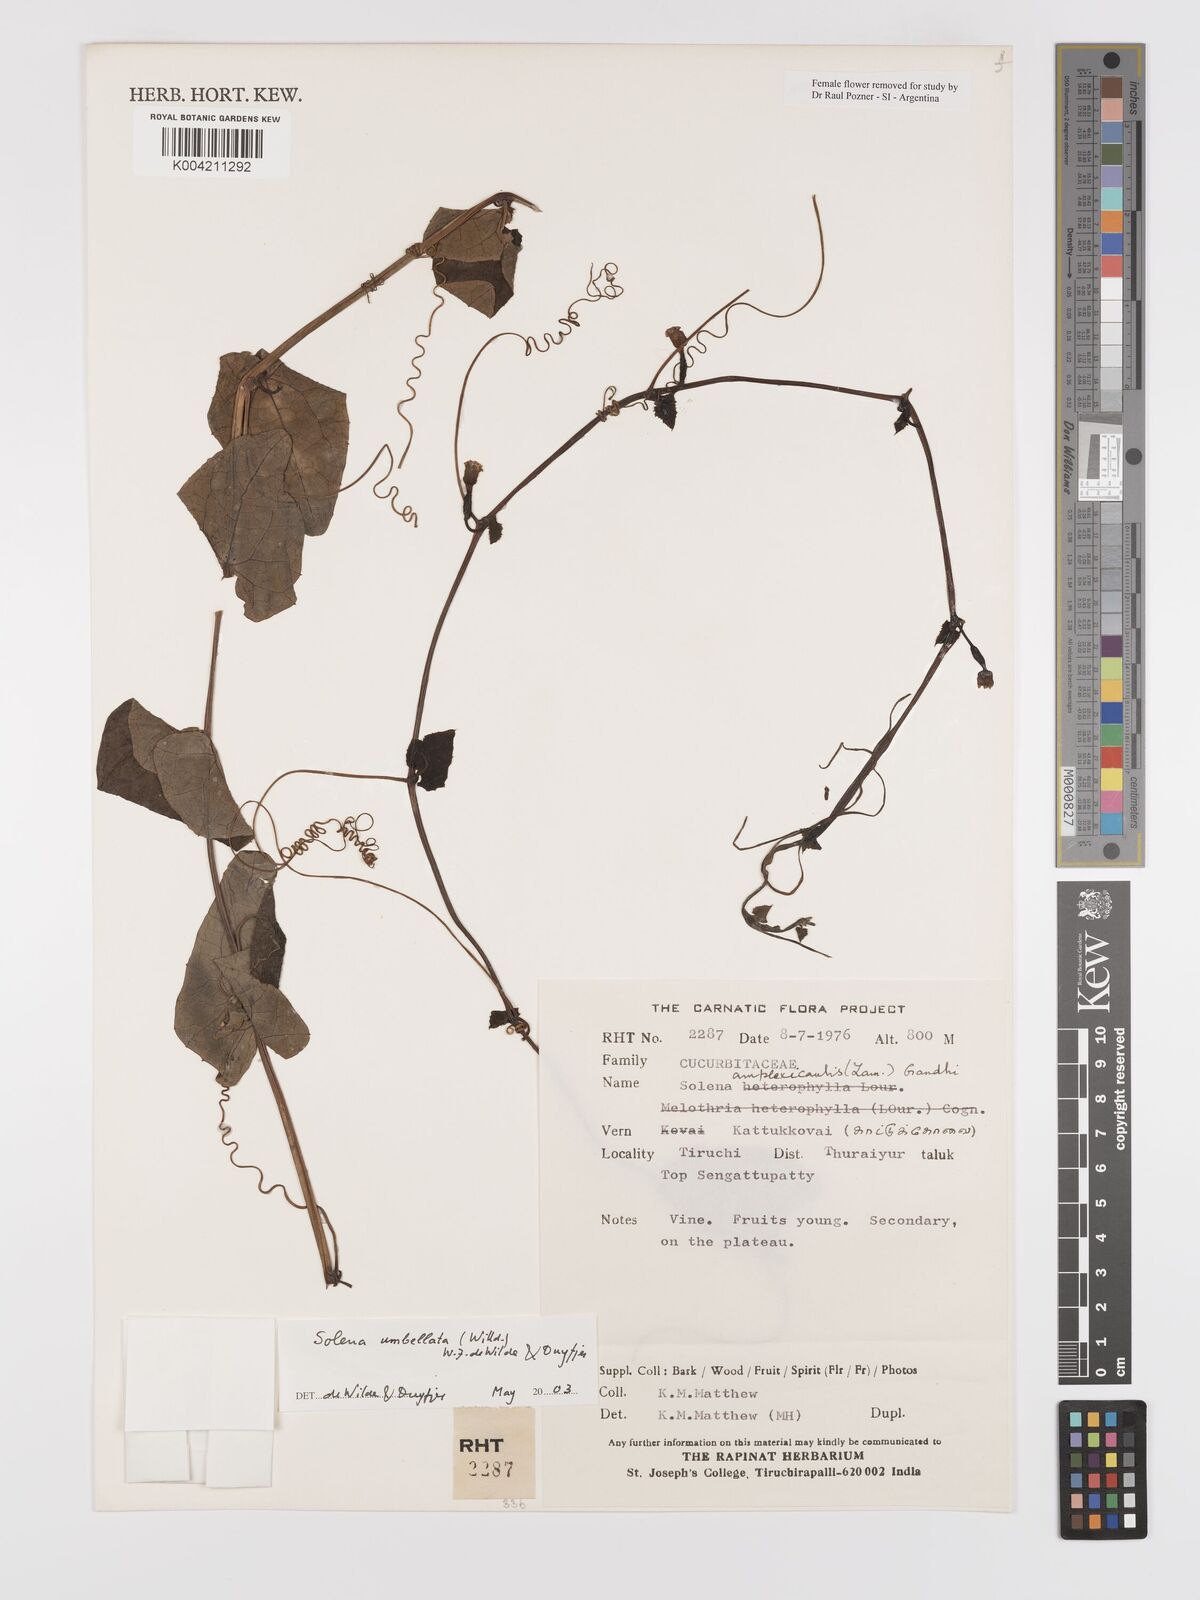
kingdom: Plantae
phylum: Tracheophyta
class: Magnoliopsida
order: Cucurbitales
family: Cucurbitaceae
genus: Solena
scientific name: Solena amplexicaulis
